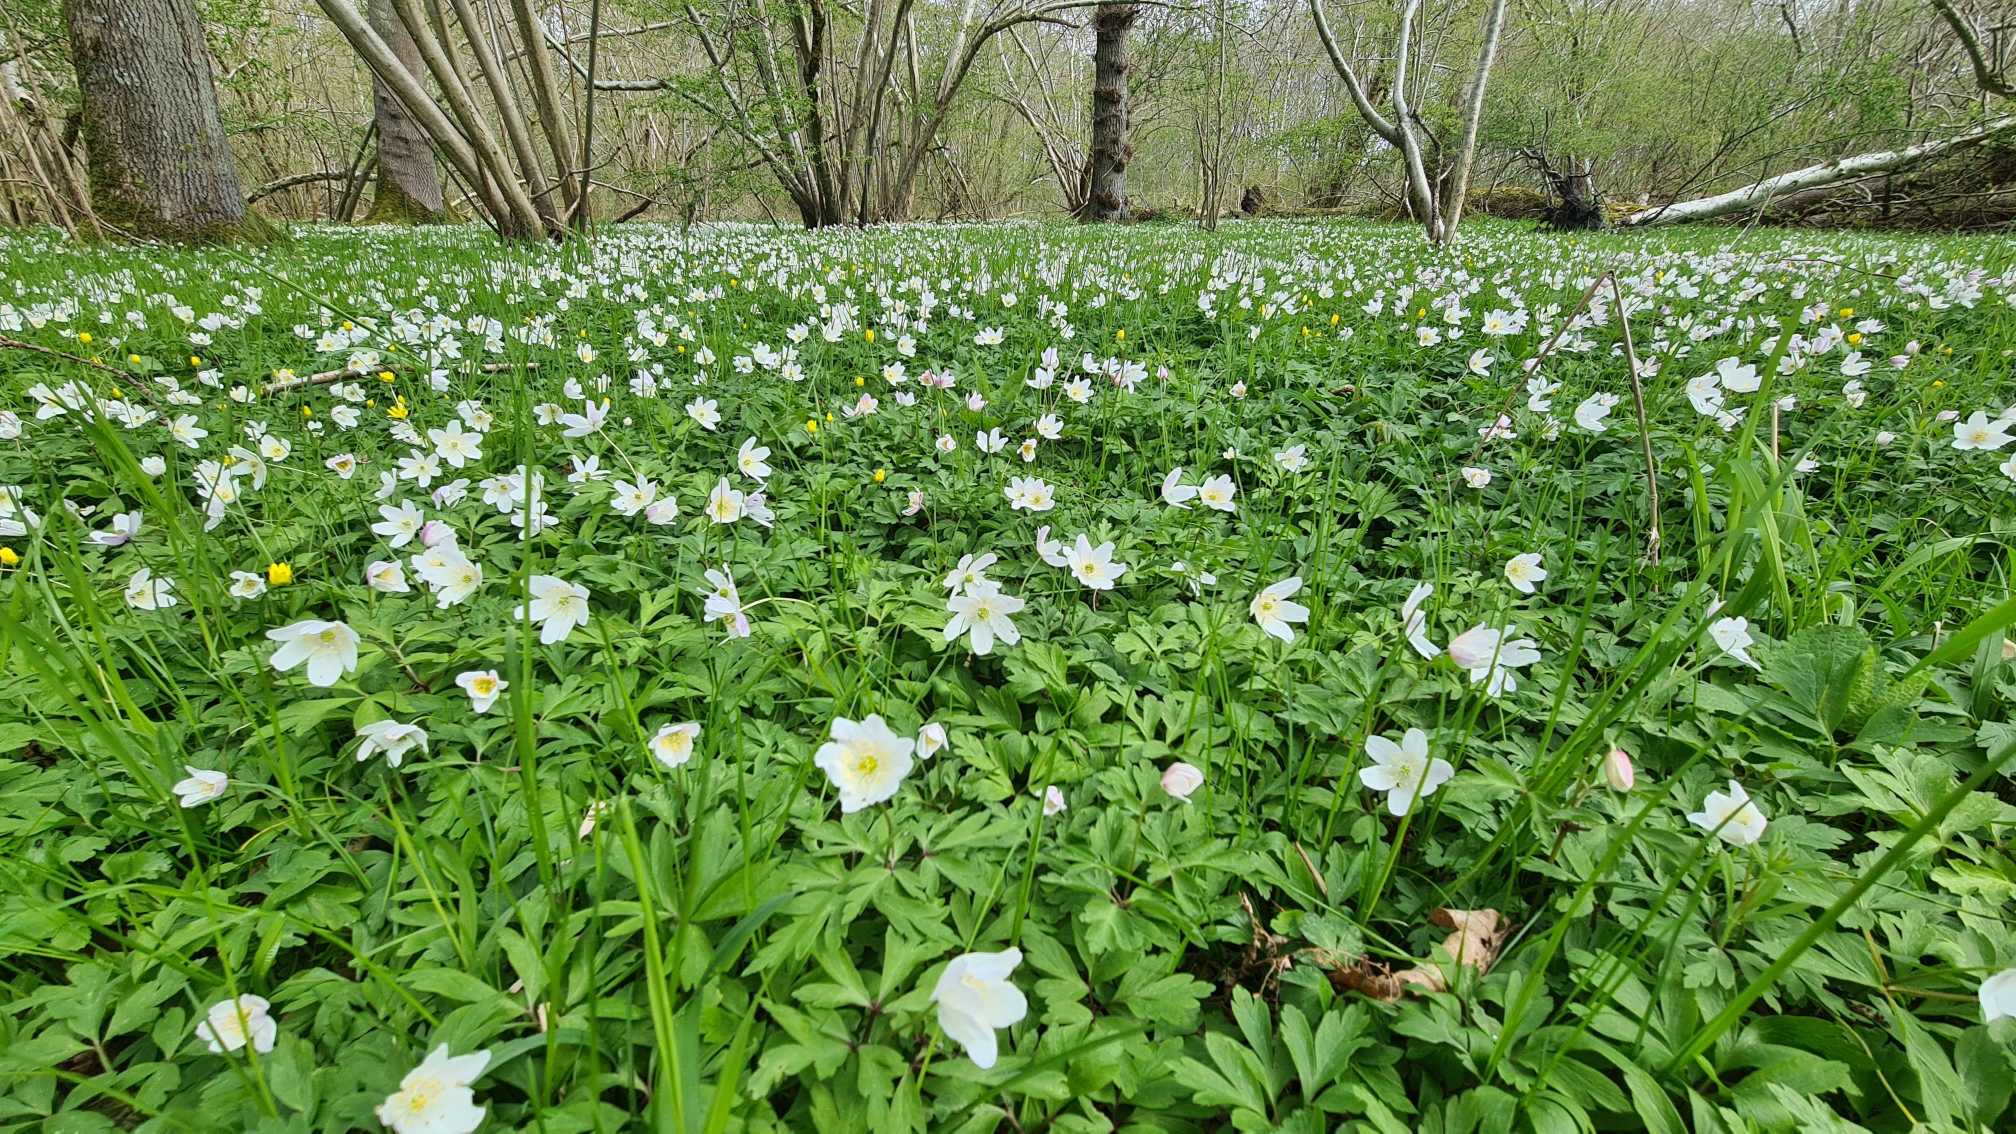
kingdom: Plantae
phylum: Tracheophyta
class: Magnoliopsida
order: Ranunculales
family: Ranunculaceae
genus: Anemone
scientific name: Anemone nemorosa
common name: Hvid anemone
